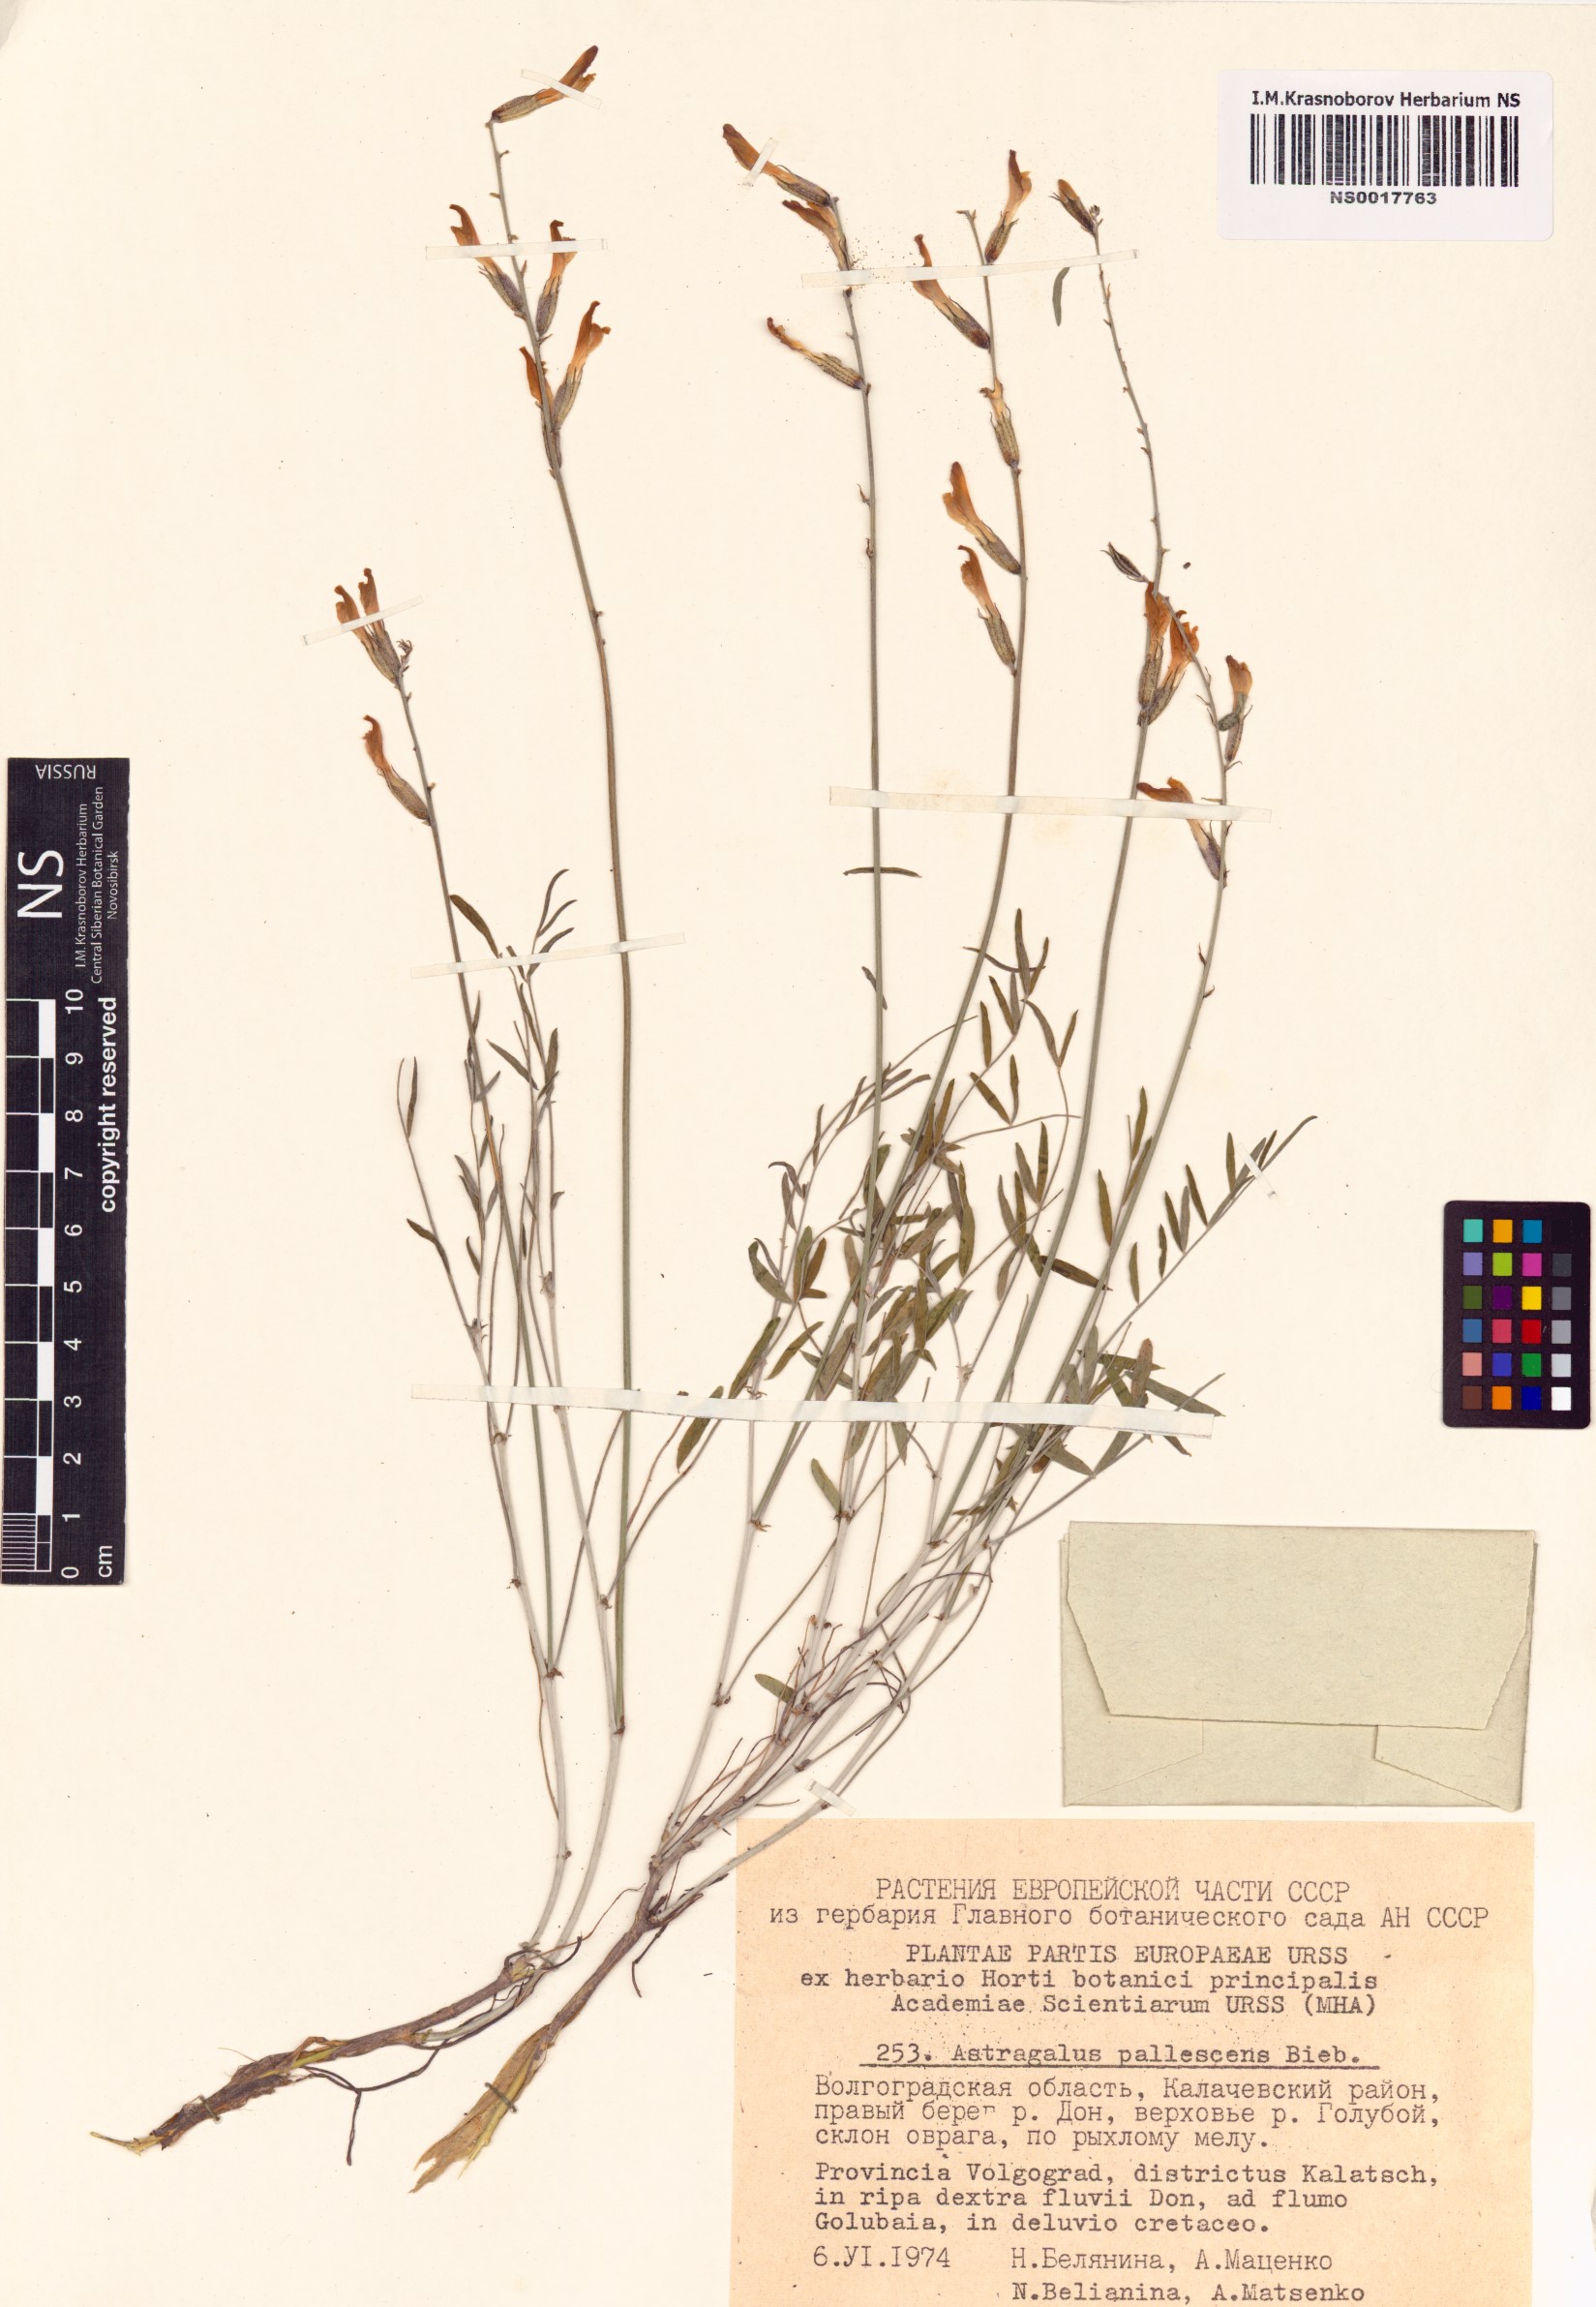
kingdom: Plantae
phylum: Tracheophyta
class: Magnoliopsida
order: Fabales
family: Fabaceae
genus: Astragalus
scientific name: Astragalus pallescens
